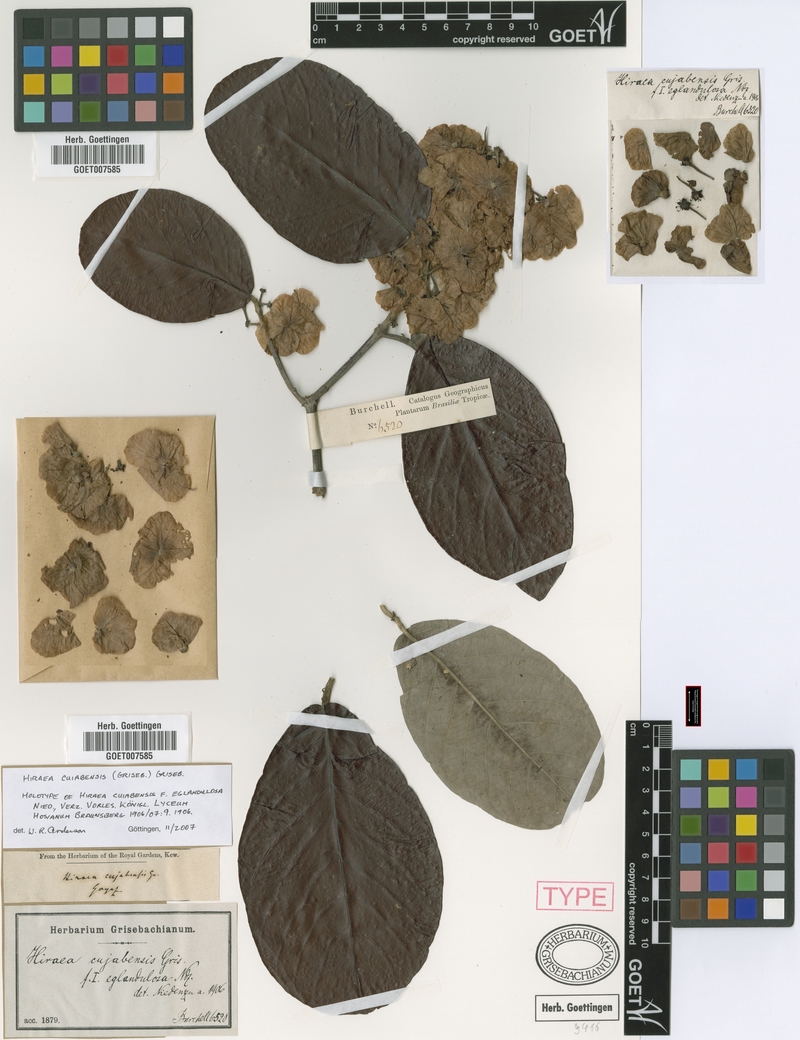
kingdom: Plantae
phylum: Tracheophyta
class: Magnoliopsida
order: Malpighiales
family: Malpighiaceae
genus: Hiraea
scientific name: Hiraea cuiabensis
